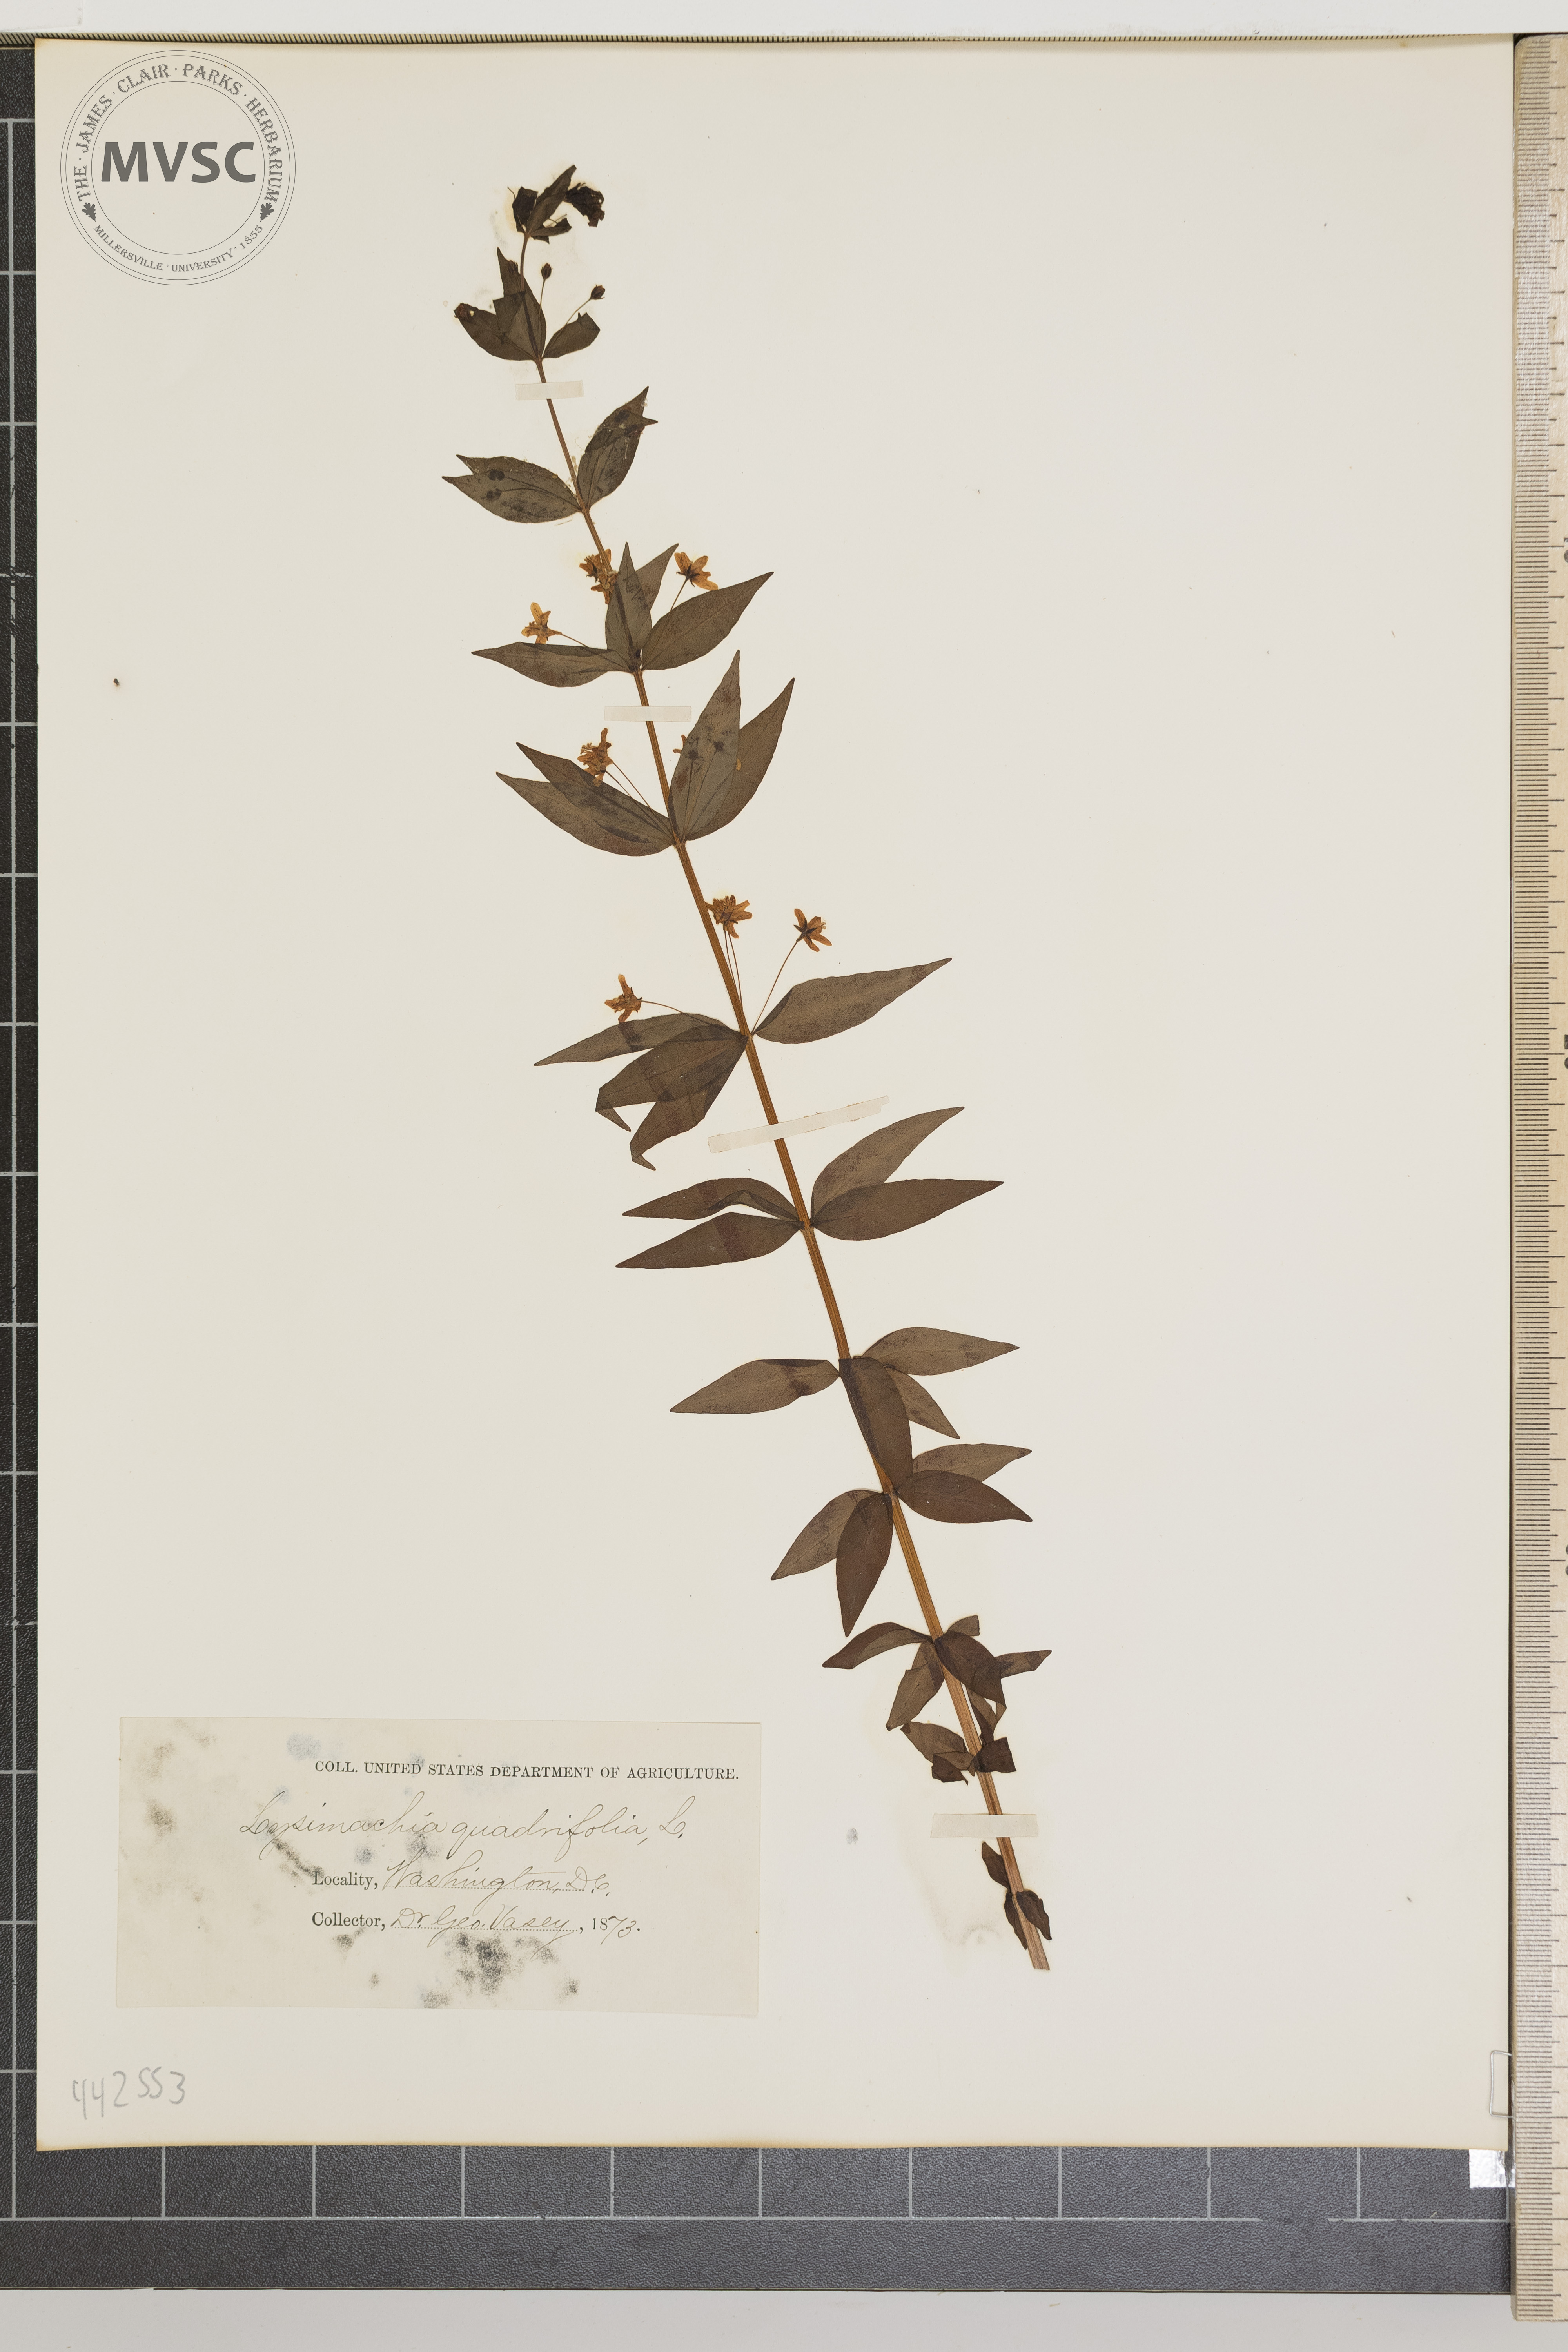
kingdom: Plantae
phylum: Tracheophyta
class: Magnoliopsida
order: Ericales
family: Primulaceae
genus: Lysimachia
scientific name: Lysimachia quadrifolia
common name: Whorled loosestrife
